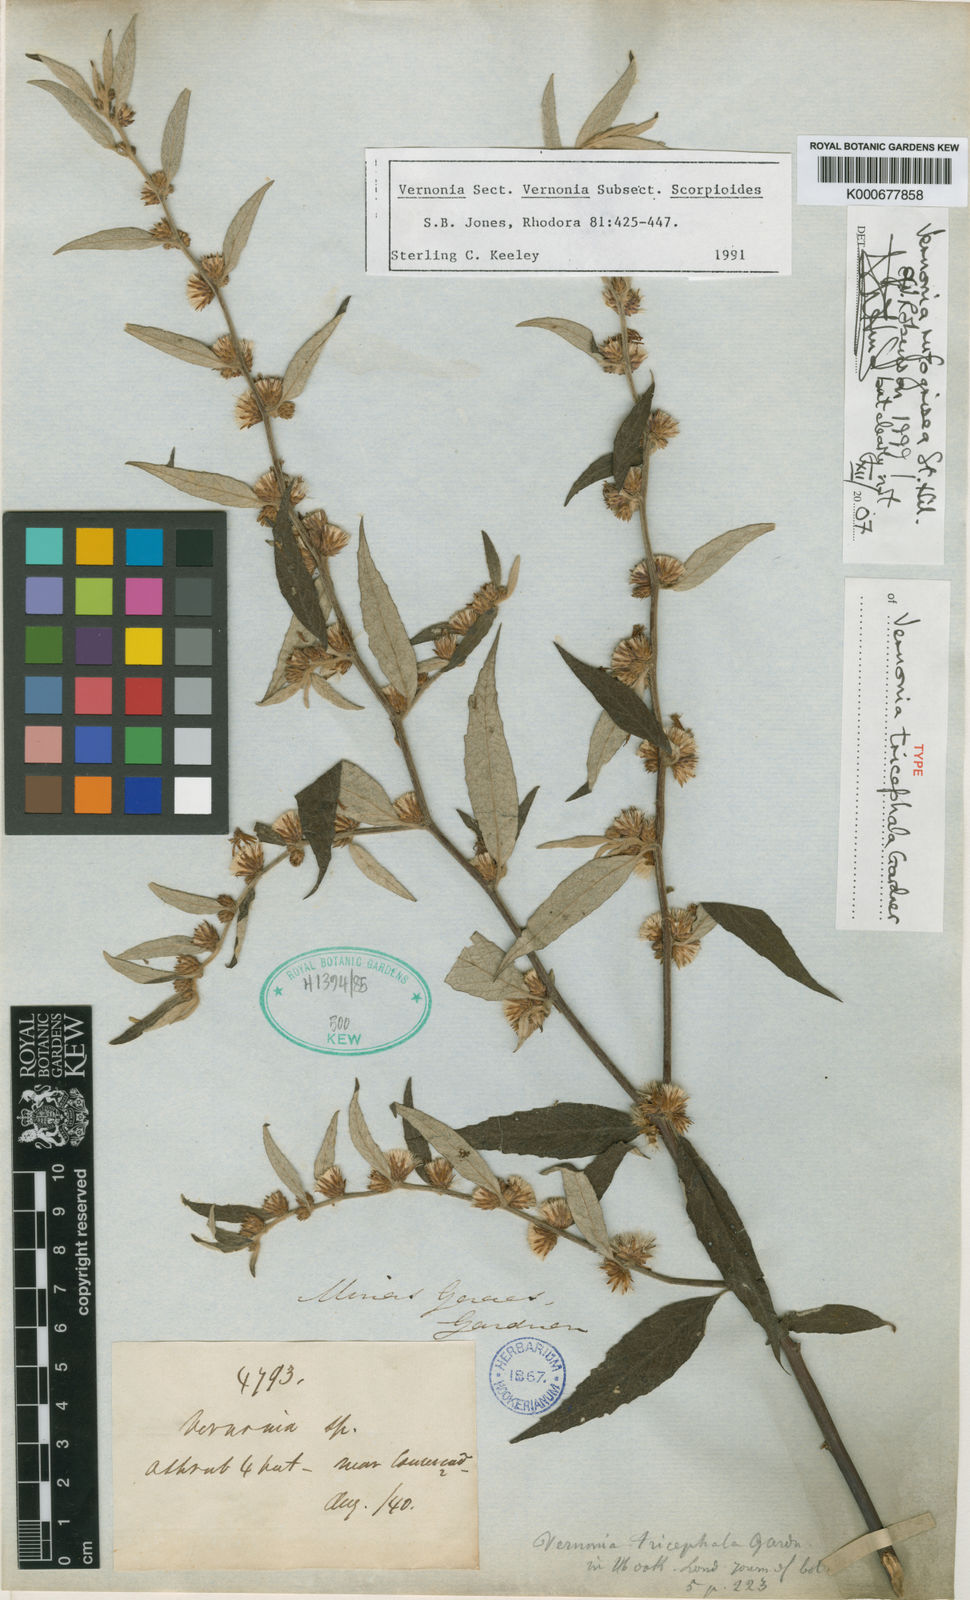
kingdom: Plantae
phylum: Tracheophyta
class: Magnoliopsida
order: Asterales
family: Asteraceae
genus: Lepidaploa
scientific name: Lepidaploa rufogrisea
